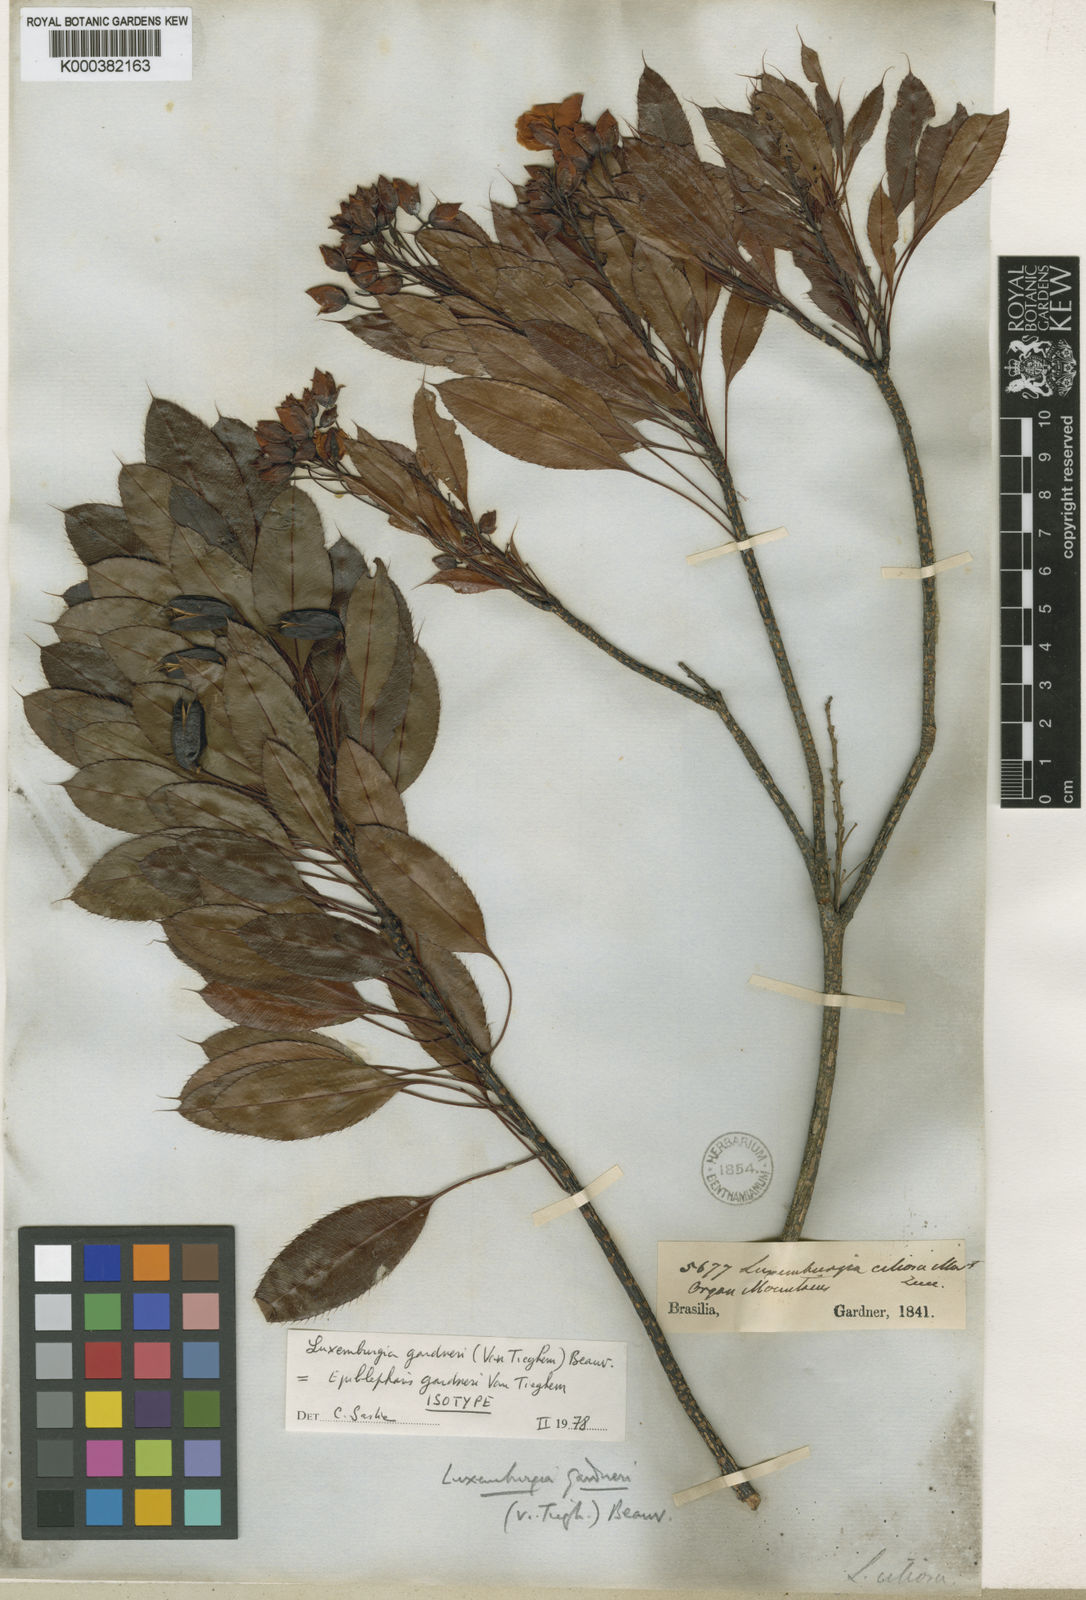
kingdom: Plantae
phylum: Tracheophyta
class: Magnoliopsida
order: Malpighiales
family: Ochnaceae
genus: Luxemburgia
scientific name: Luxemburgia ciliosa
